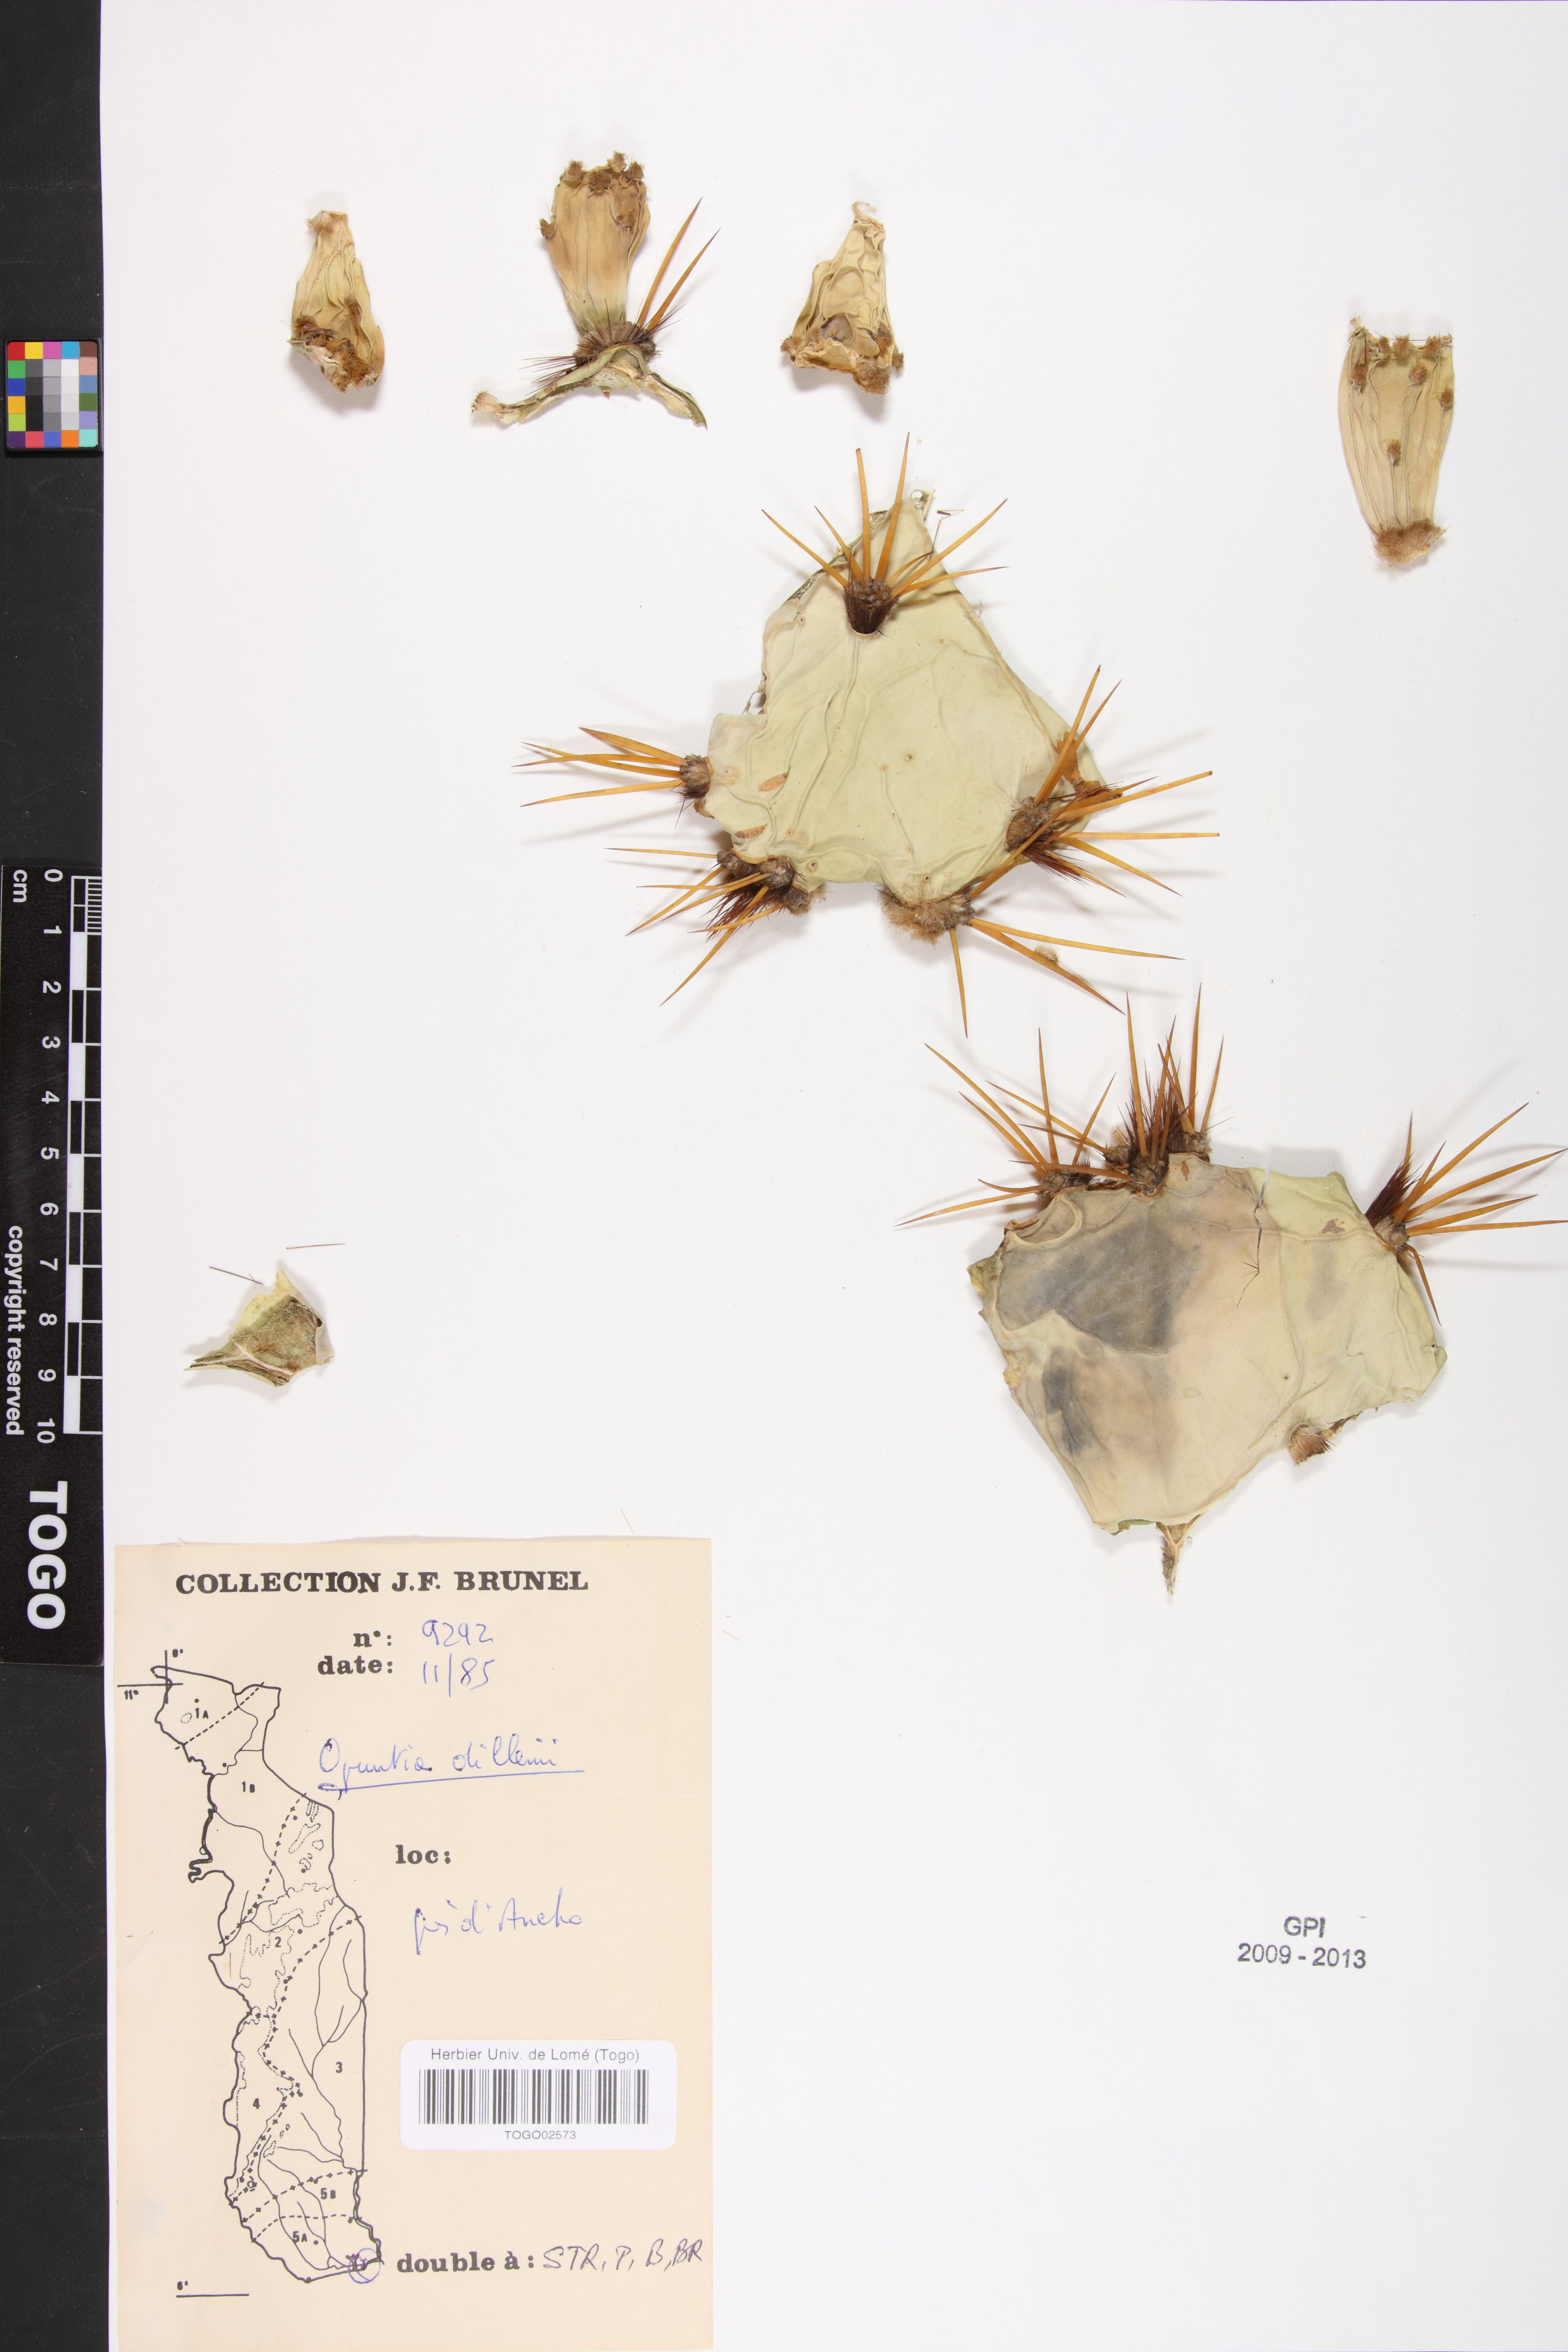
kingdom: Plantae
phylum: Tracheophyta
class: Magnoliopsida
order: Caryophyllales
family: Cactaceae
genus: Opuntia
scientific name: Opuntia dillenii
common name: Sour prickle
